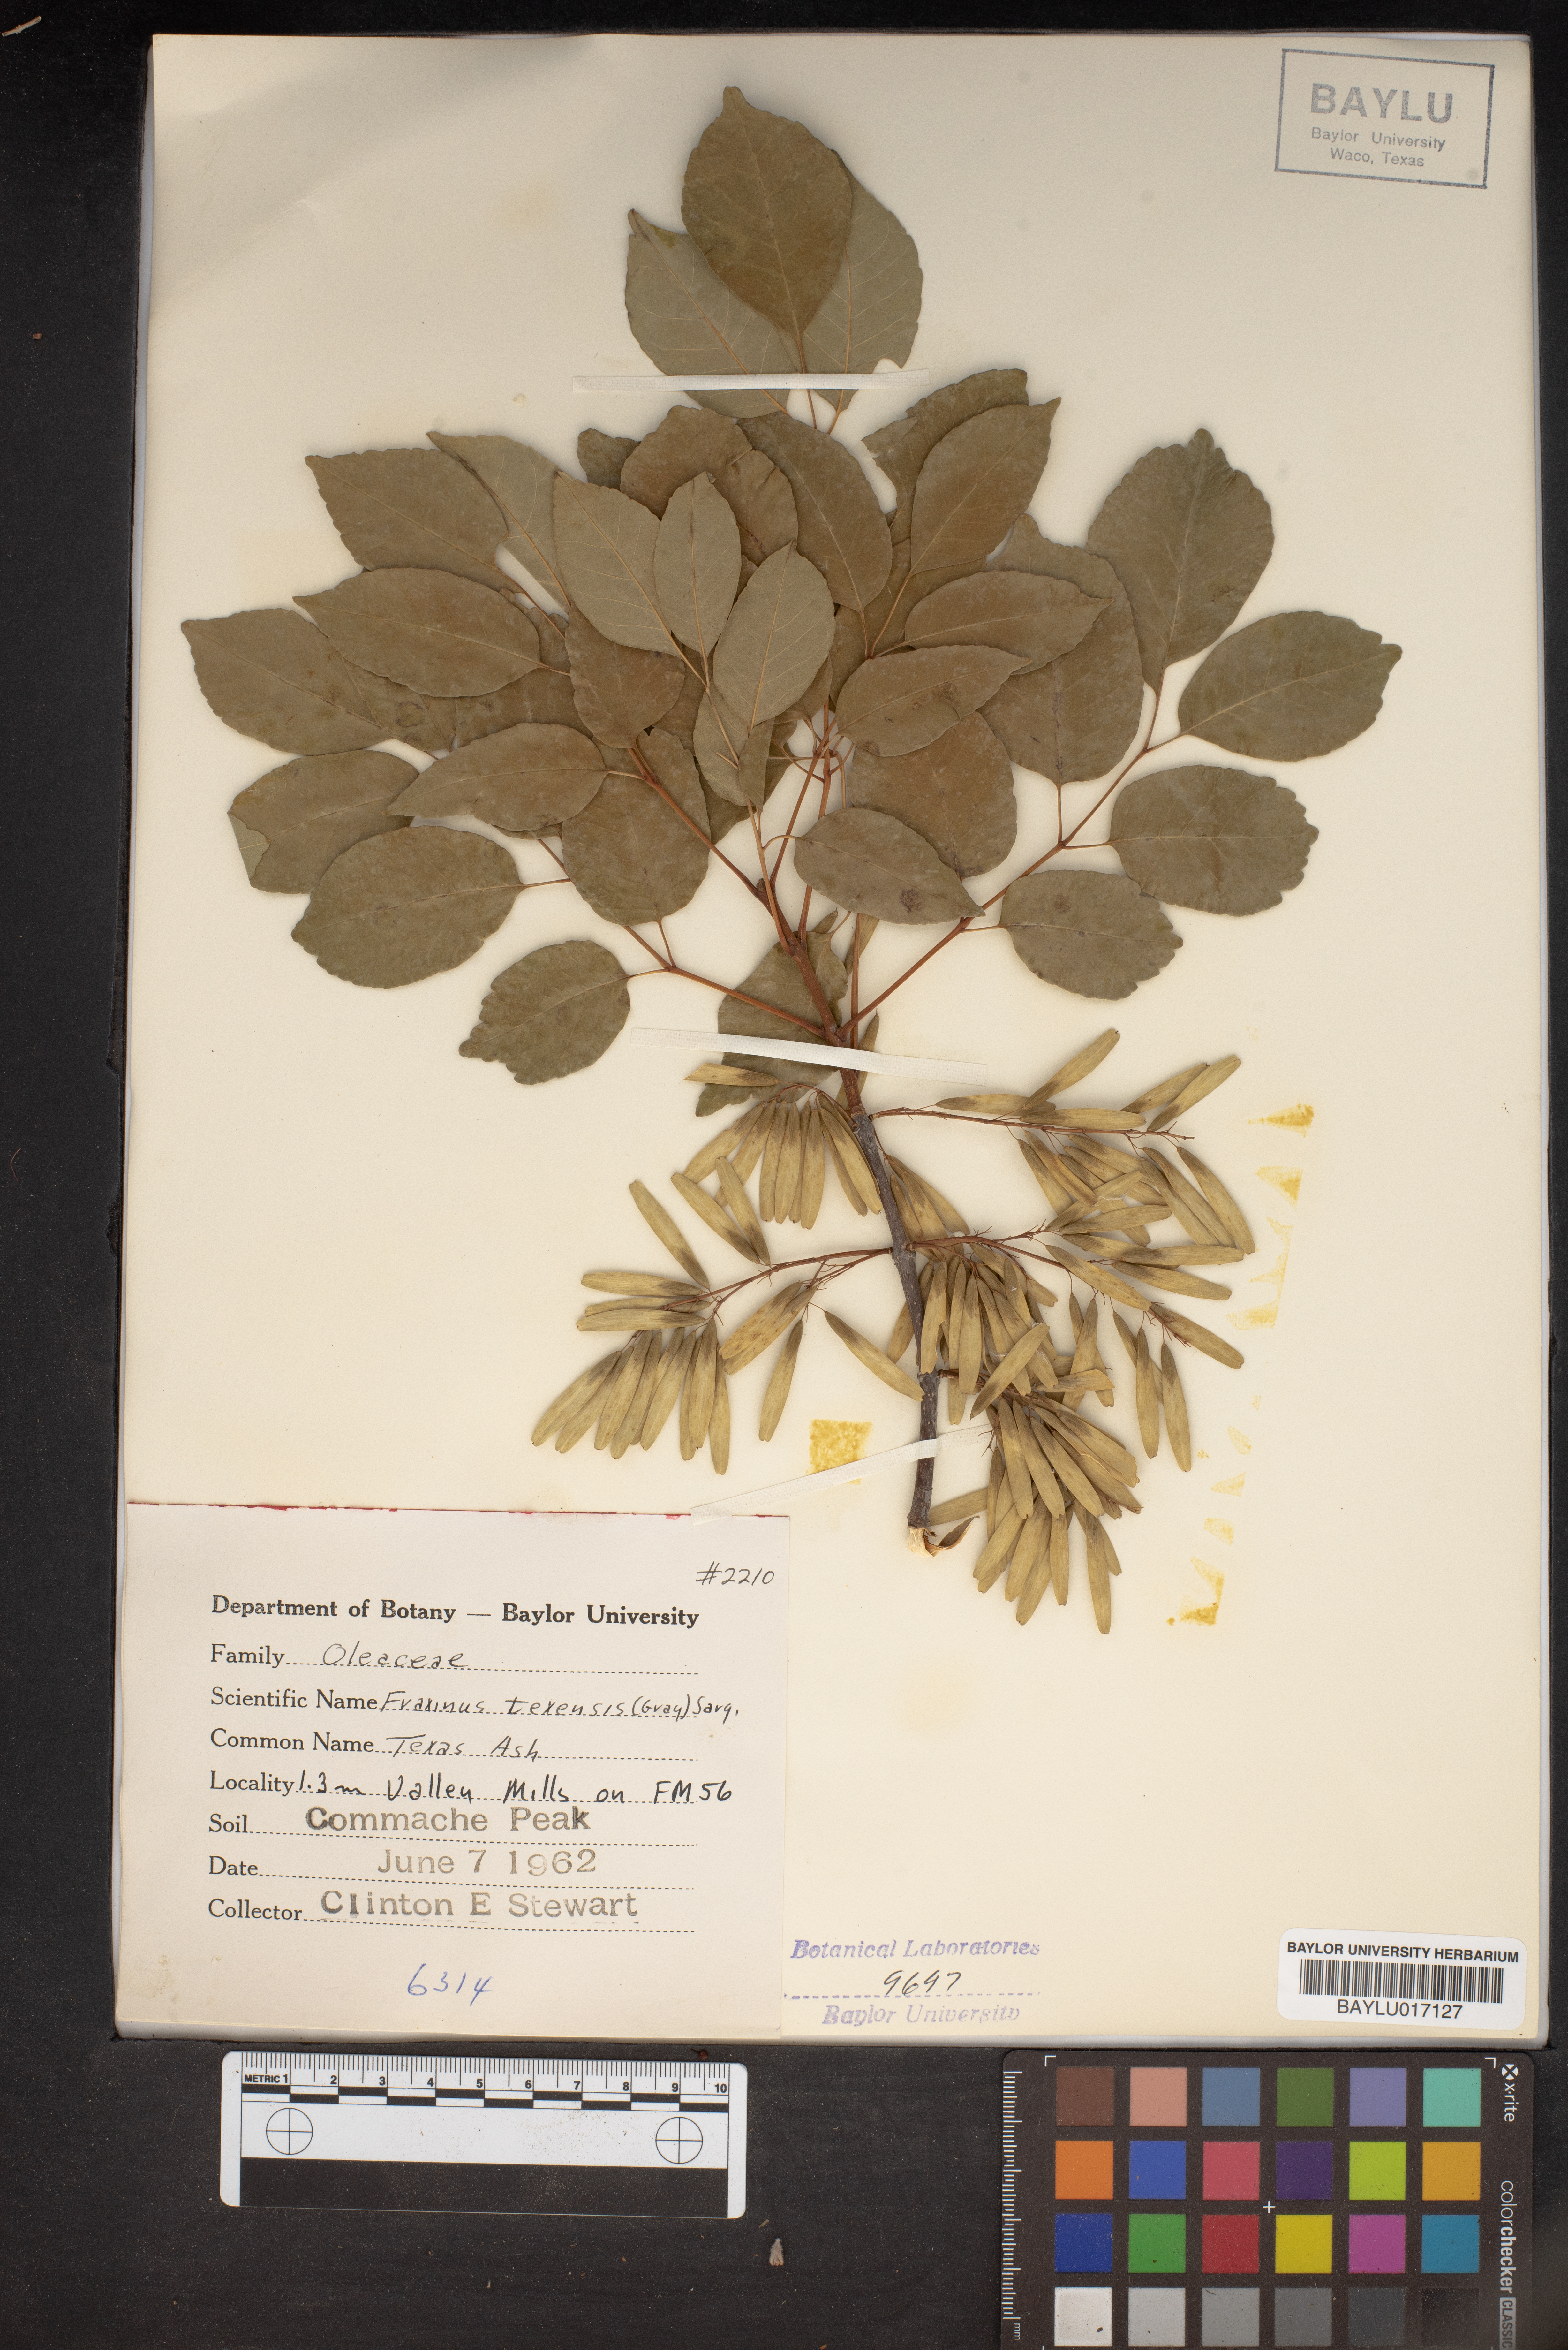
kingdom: Plantae
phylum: Tracheophyta
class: Magnoliopsida
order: Lamiales
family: Oleaceae
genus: Fraxinus
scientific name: Fraxinus albicans
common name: Texas ash
